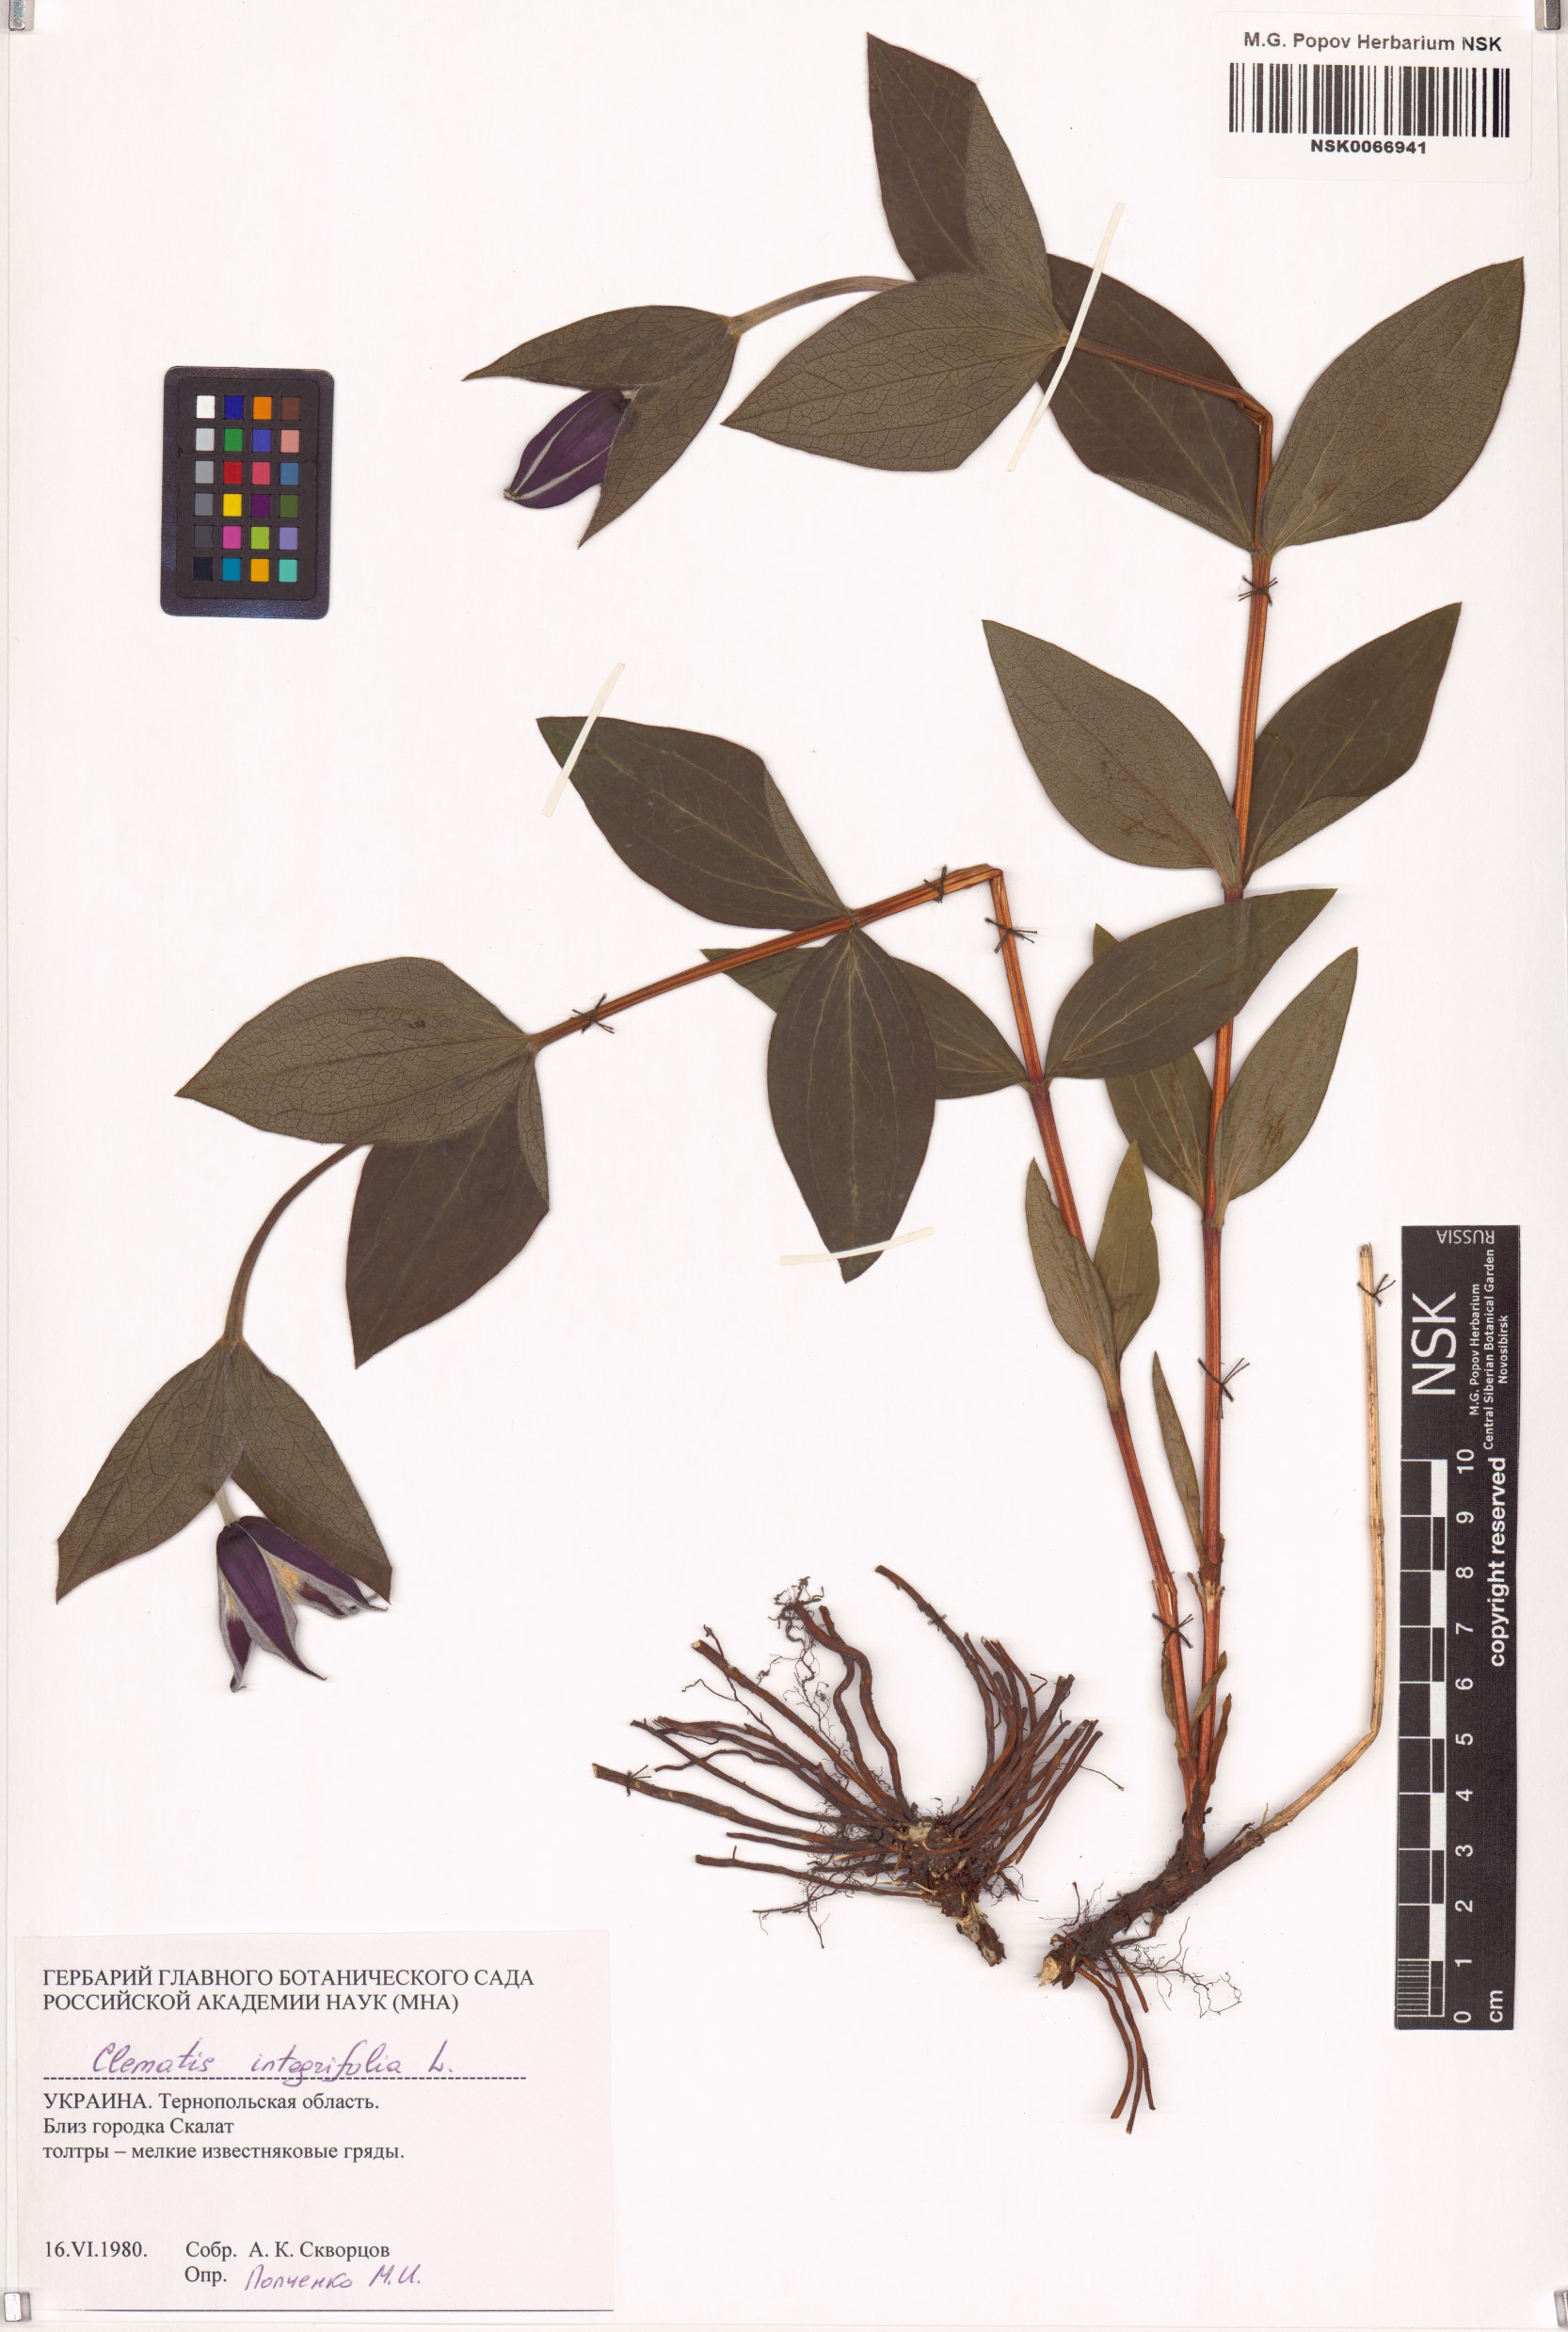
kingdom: Plantae
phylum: Tracheophyta
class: Magnoliopsida
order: Ranunculales
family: Ranunculaceae
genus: Clematis
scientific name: Clematis integrifolia
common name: Solitary clematis
